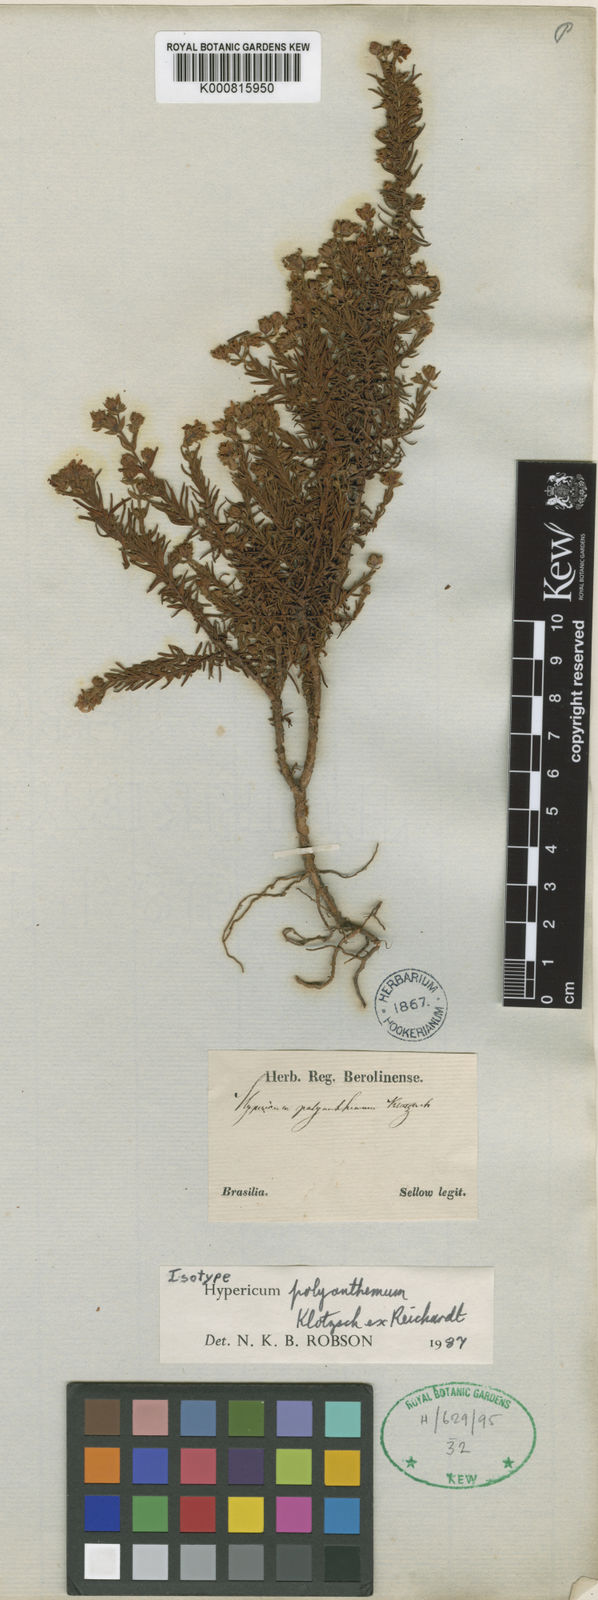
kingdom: Plantae
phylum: Tracheophyta
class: Magnoliopsida
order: Malpighiales
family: Hypericaceae
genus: Hypericum
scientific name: Hypericum polyanthemum
